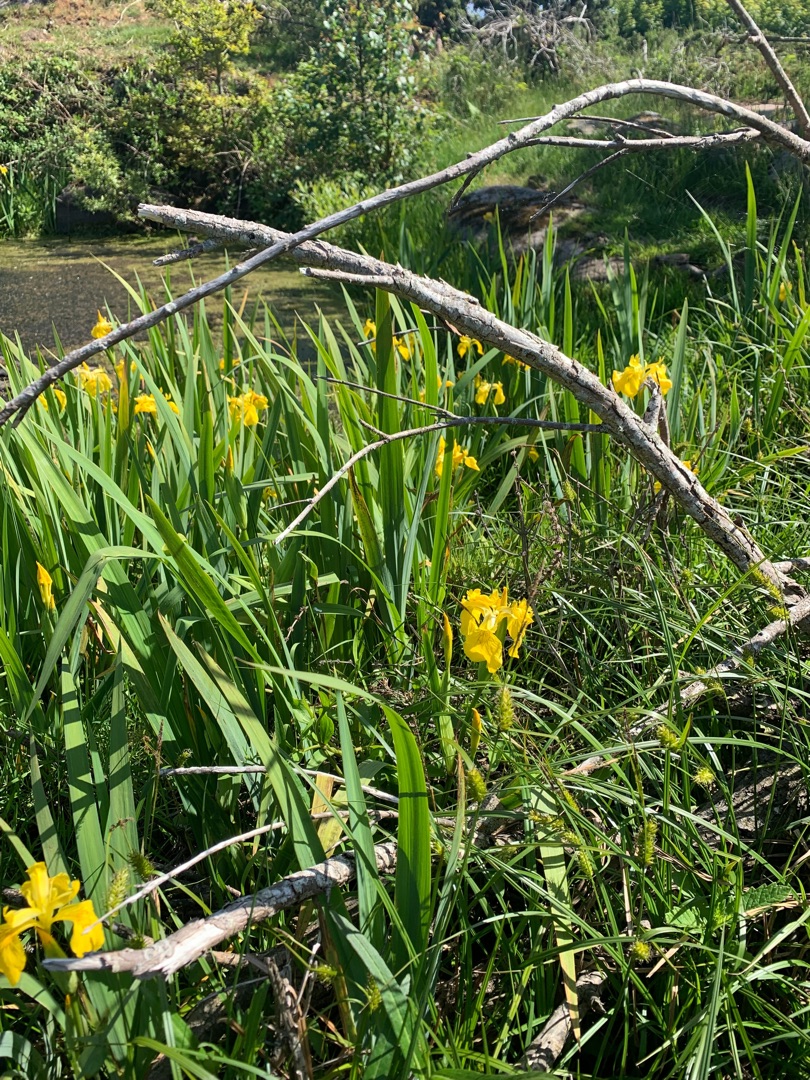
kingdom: Plantae
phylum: Tracheophyta
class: Liliopsida
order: Asparagales
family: Iridaceae
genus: Iris
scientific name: Iris pseudacorus
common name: Gul iris
